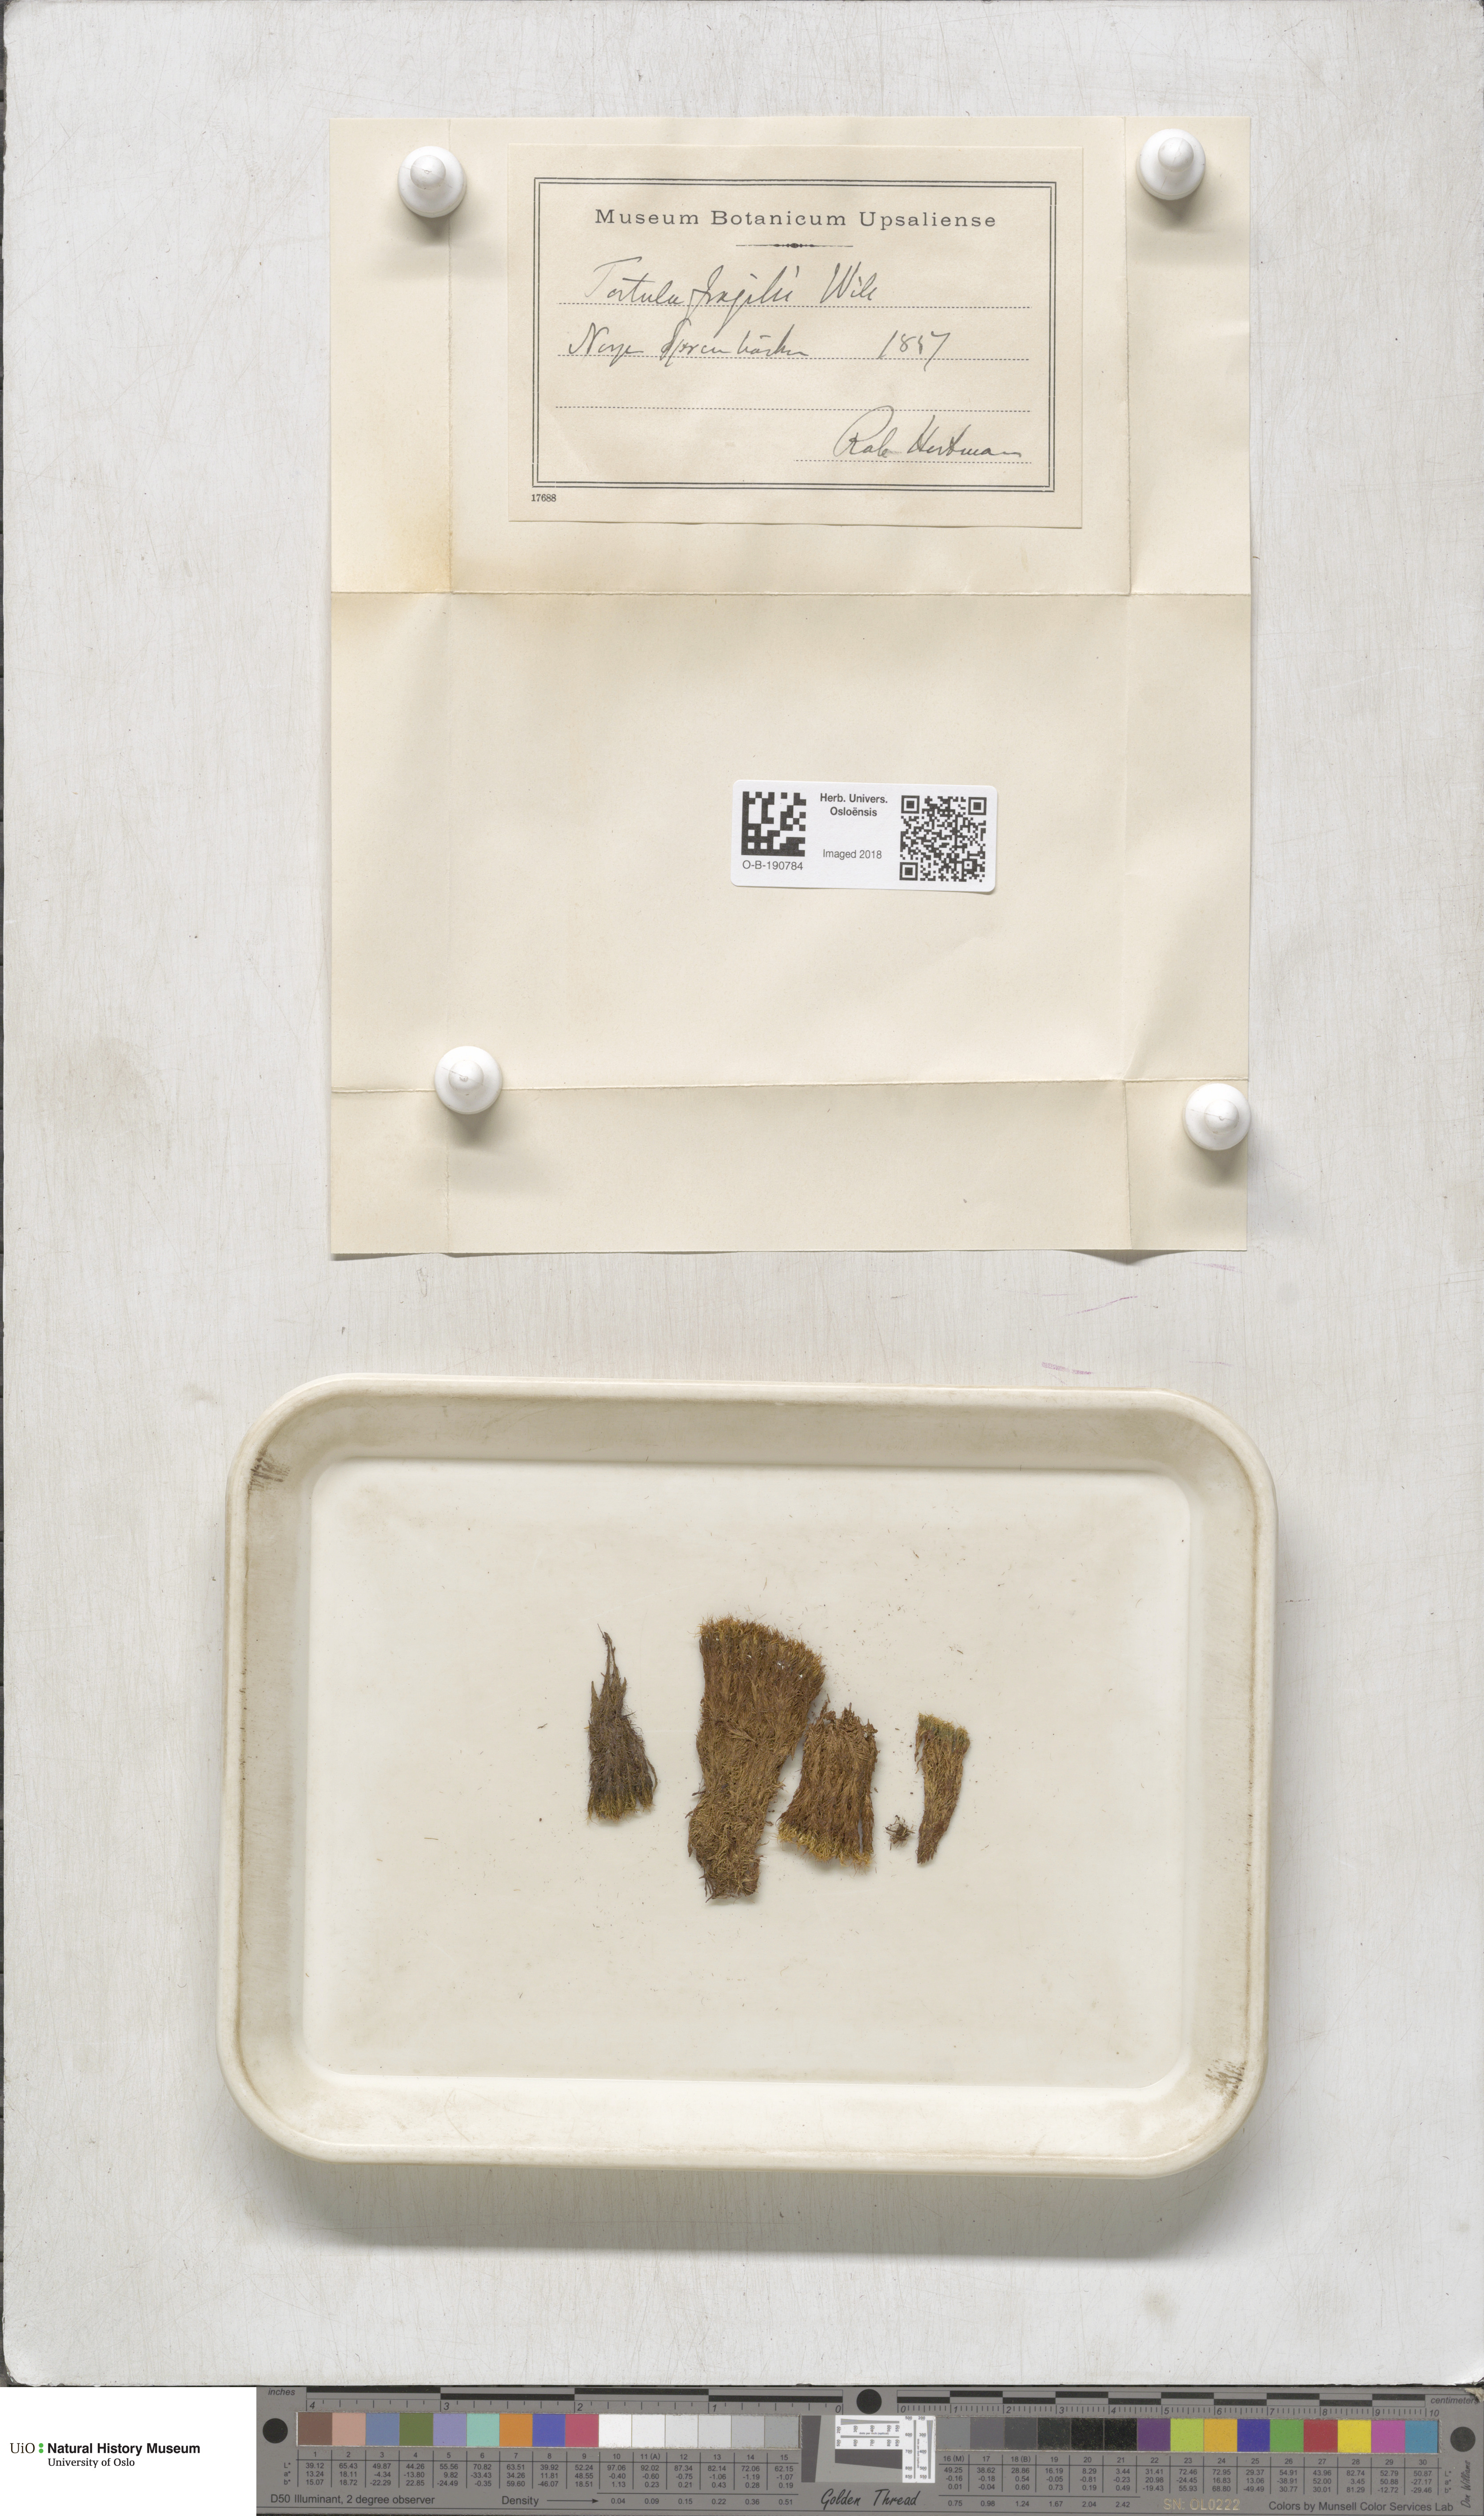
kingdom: Plantae
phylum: Bryophyta
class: Bryopsida
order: Pottiales
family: Pottiaceae
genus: Tortella
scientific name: Tortella fragilis
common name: Fragile twisted moss
